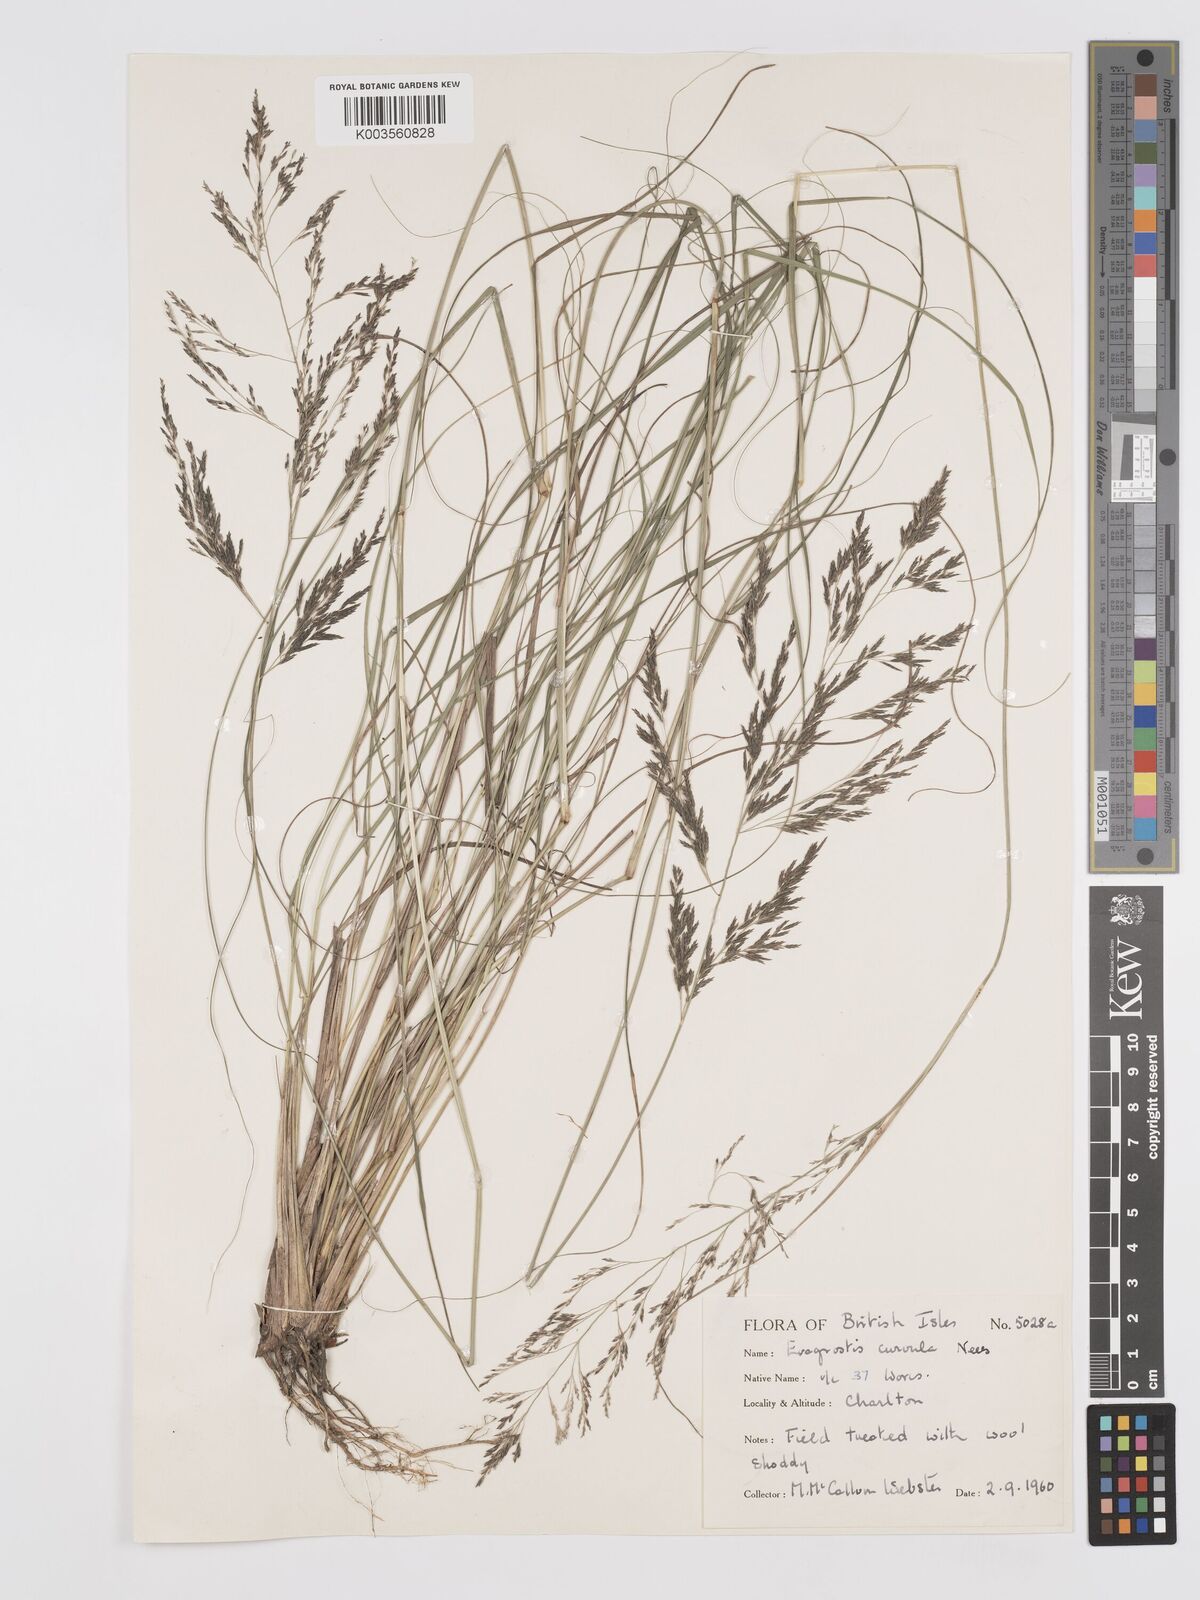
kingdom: Plantae
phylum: Tracheophyta
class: Liliopsida
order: Poales
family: Poaceae
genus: Eragrostis
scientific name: Eragrostis curvula
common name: African love-grass
